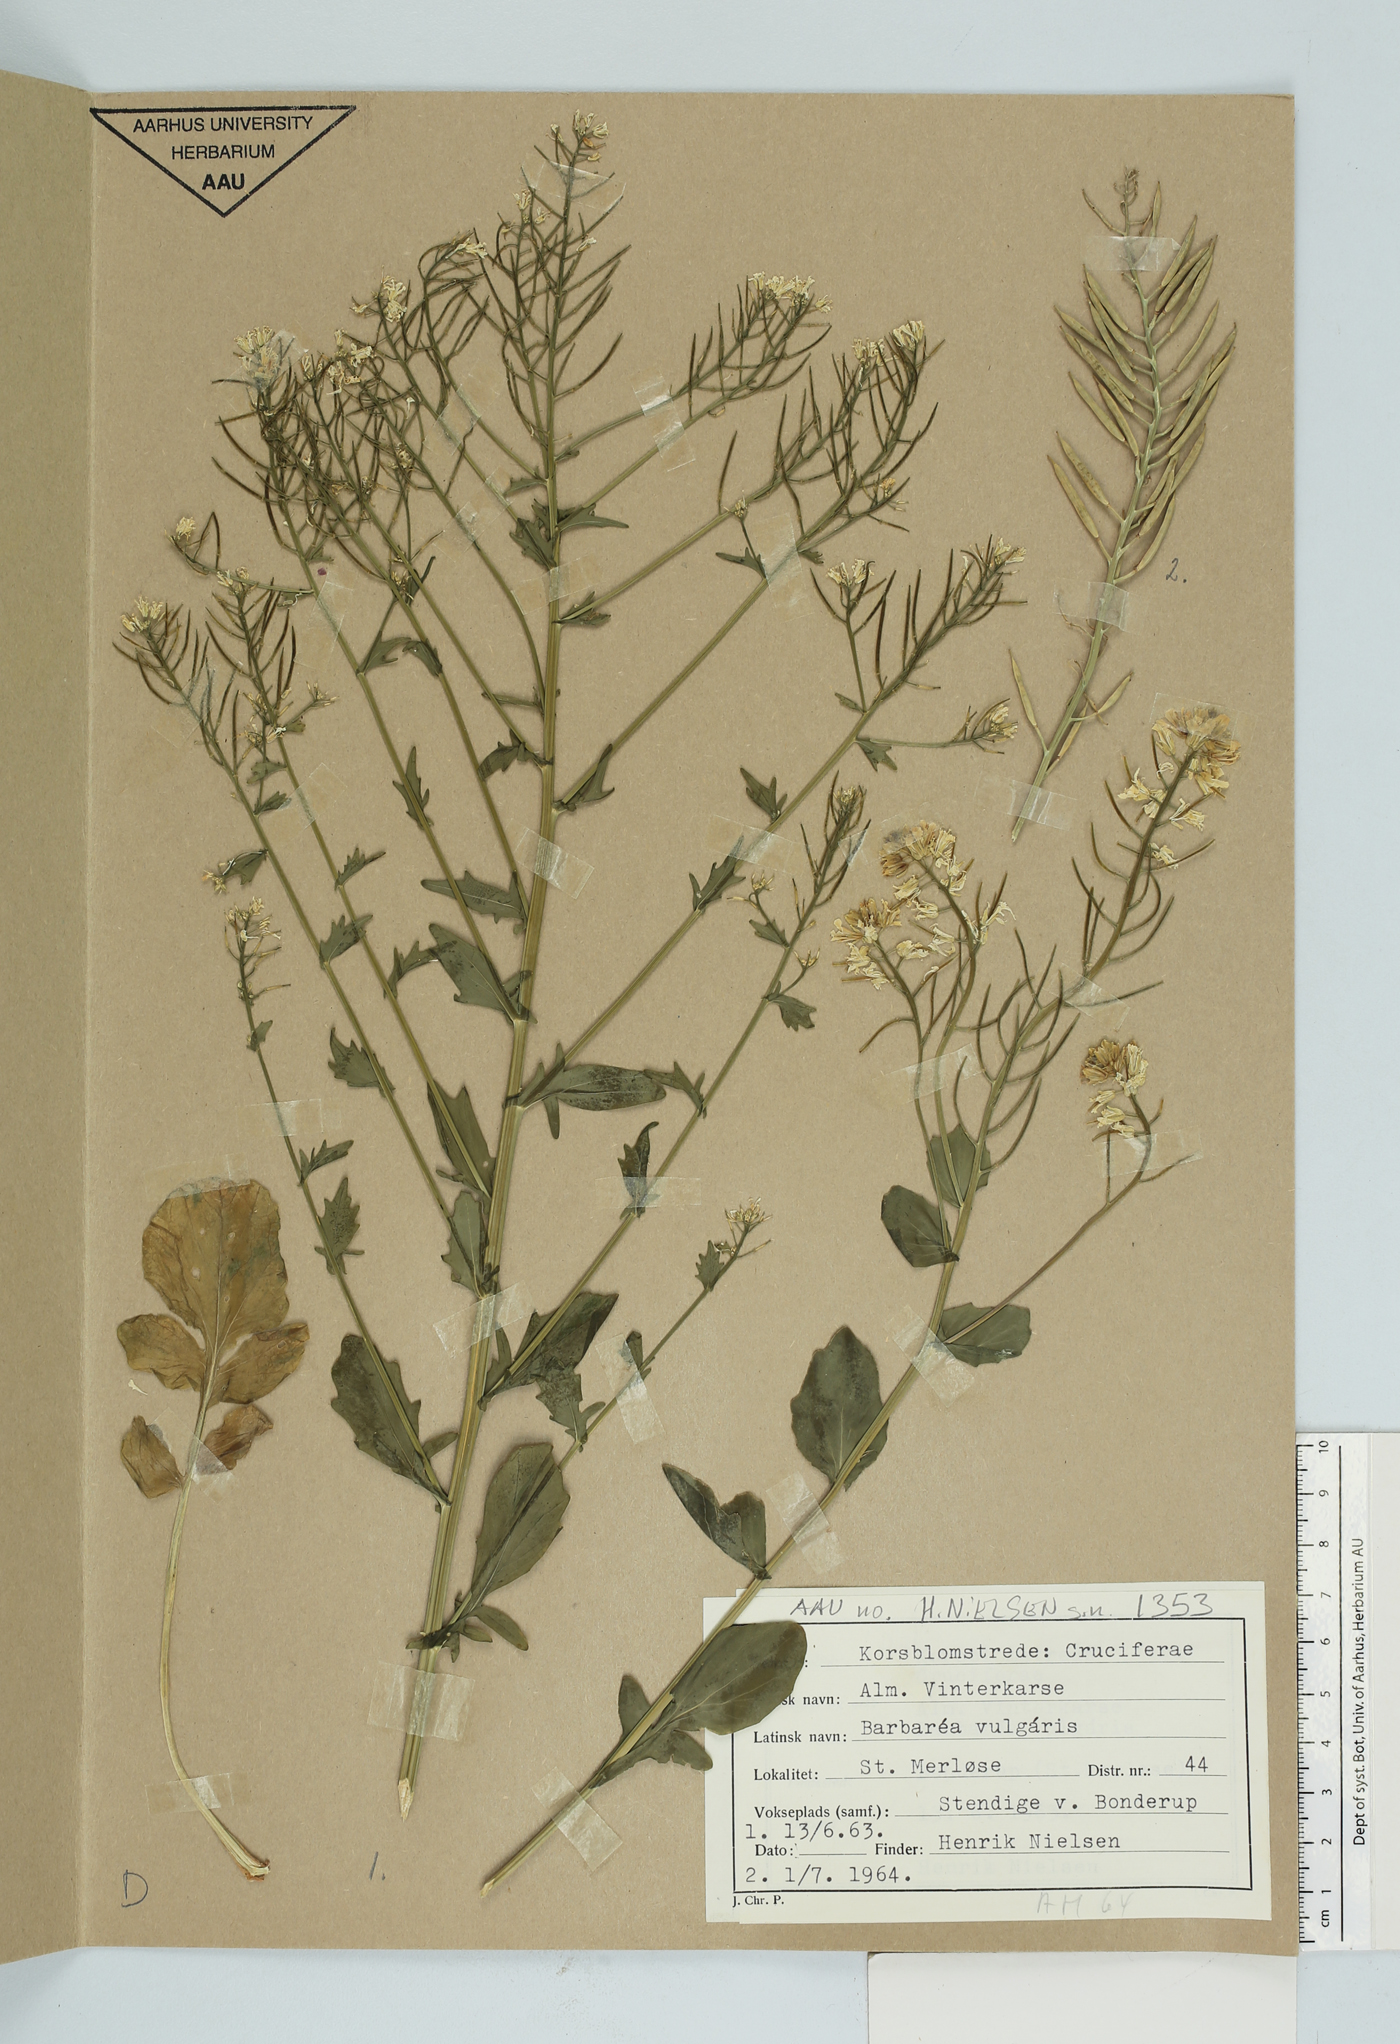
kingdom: Plantae
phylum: Tracheophyta
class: Magnoliopsida
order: Brassicales
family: Brassicaceae
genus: Barbarea
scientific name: Barbarea vulgaris
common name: Cressy-greens
